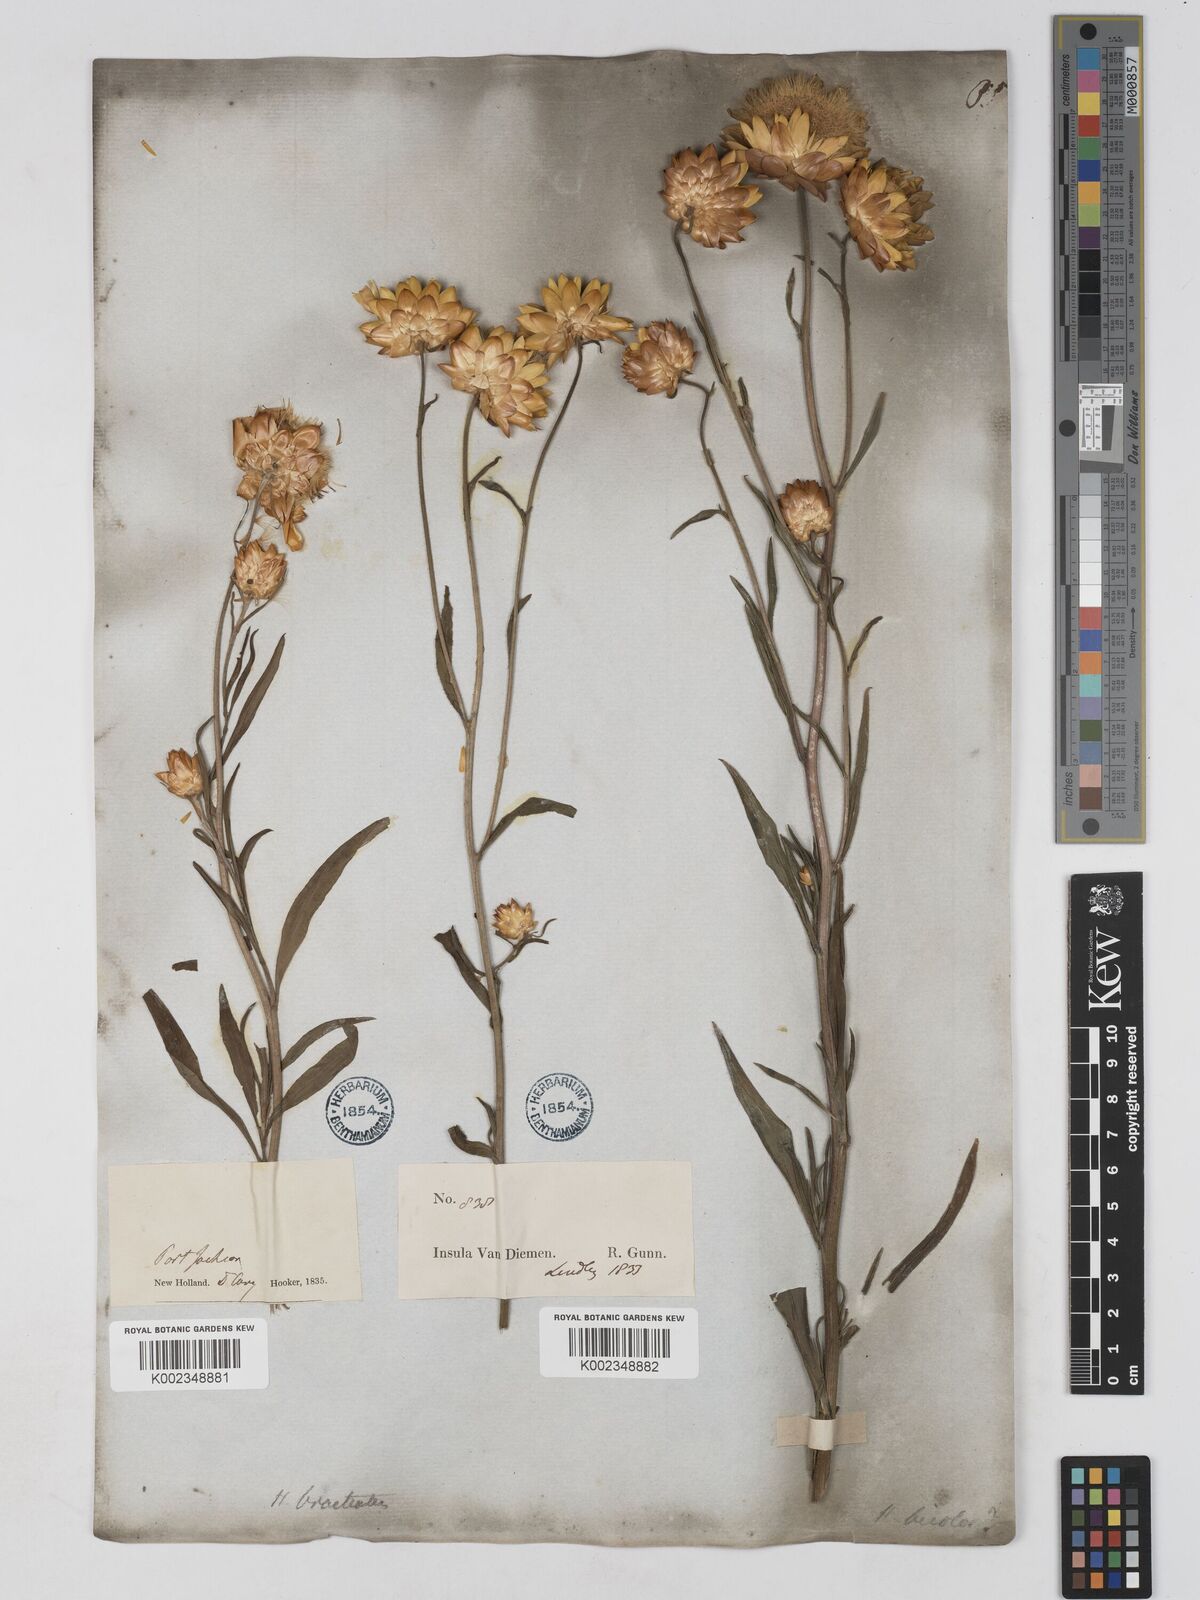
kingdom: Plantae
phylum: Tracheophyta
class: Magnoliopsida
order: Asterales
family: Asteraceae
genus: Xerochrysum
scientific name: Xerochrysum bracteatum
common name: Bracted strawflower
